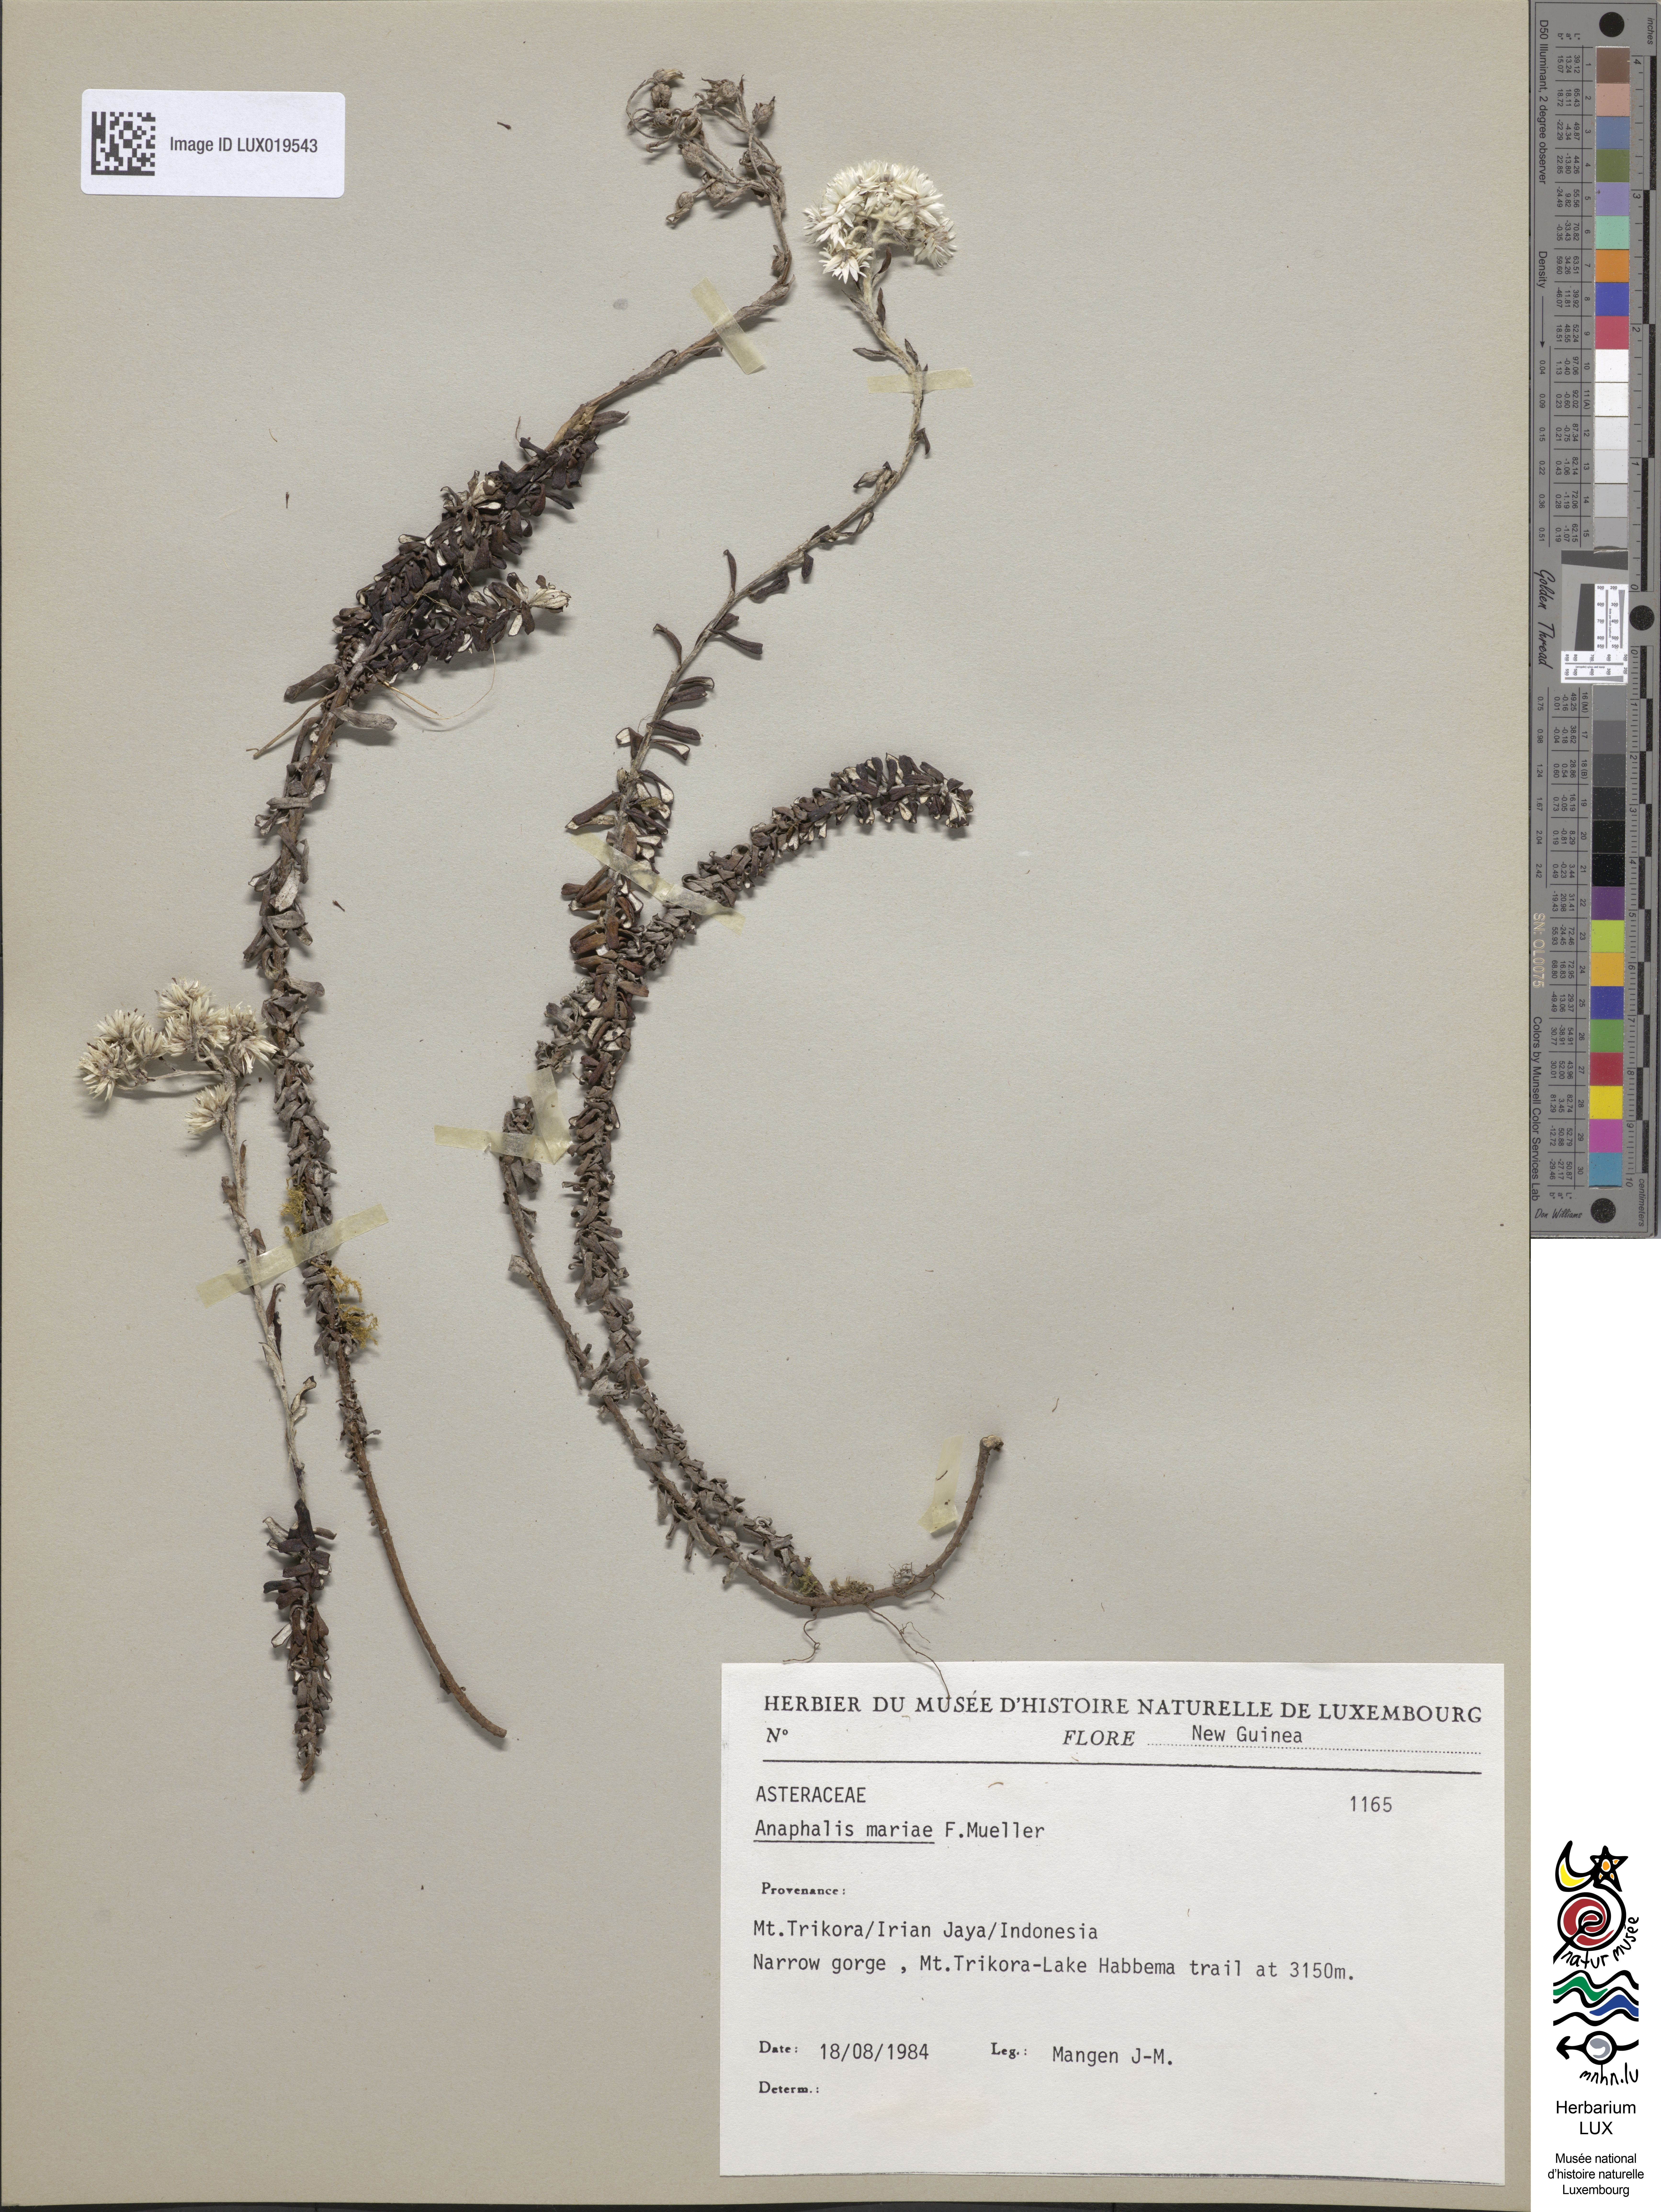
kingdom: Plantae
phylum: Tracheophyta
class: Magnoliopsida
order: Asterales
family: Asteraceae
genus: Anaphalioides
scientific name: Anaphalioides mariae
